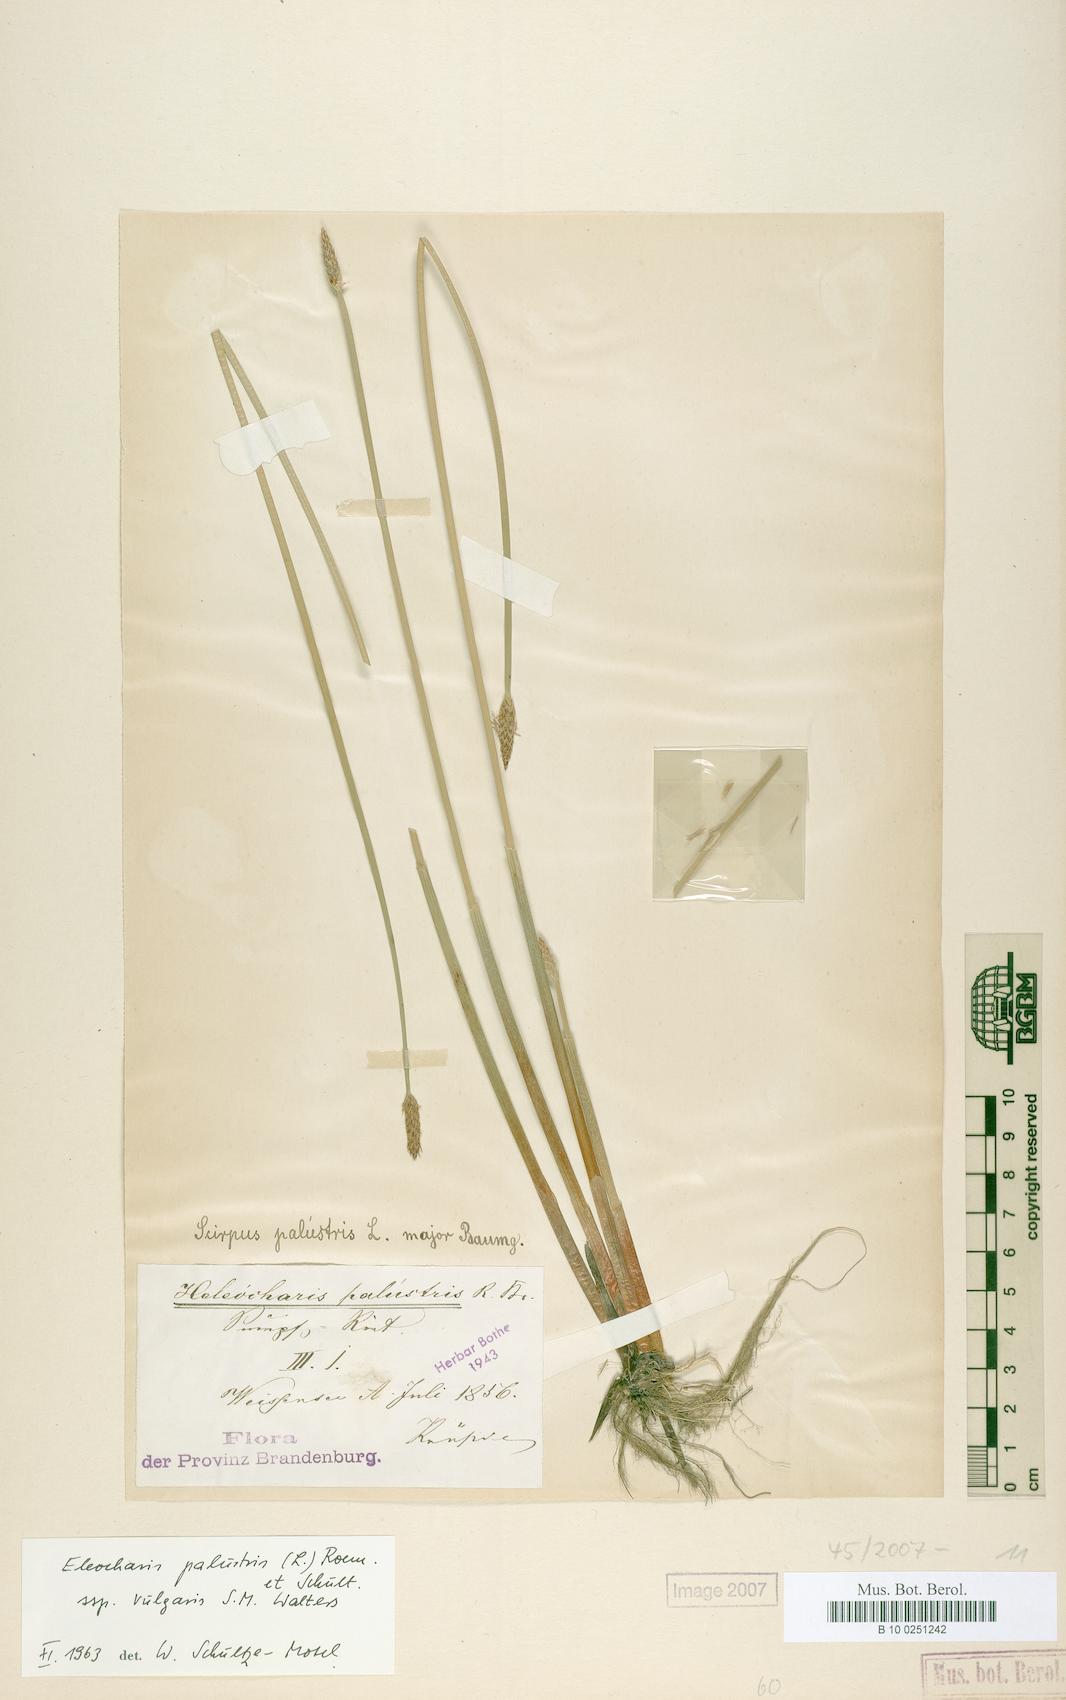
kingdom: Plantae
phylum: Tracheophyta
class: Liliopsida
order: Poales
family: Cyperaceae
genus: Eleocharis
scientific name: Eleocharis palustris
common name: Common spike-rush
